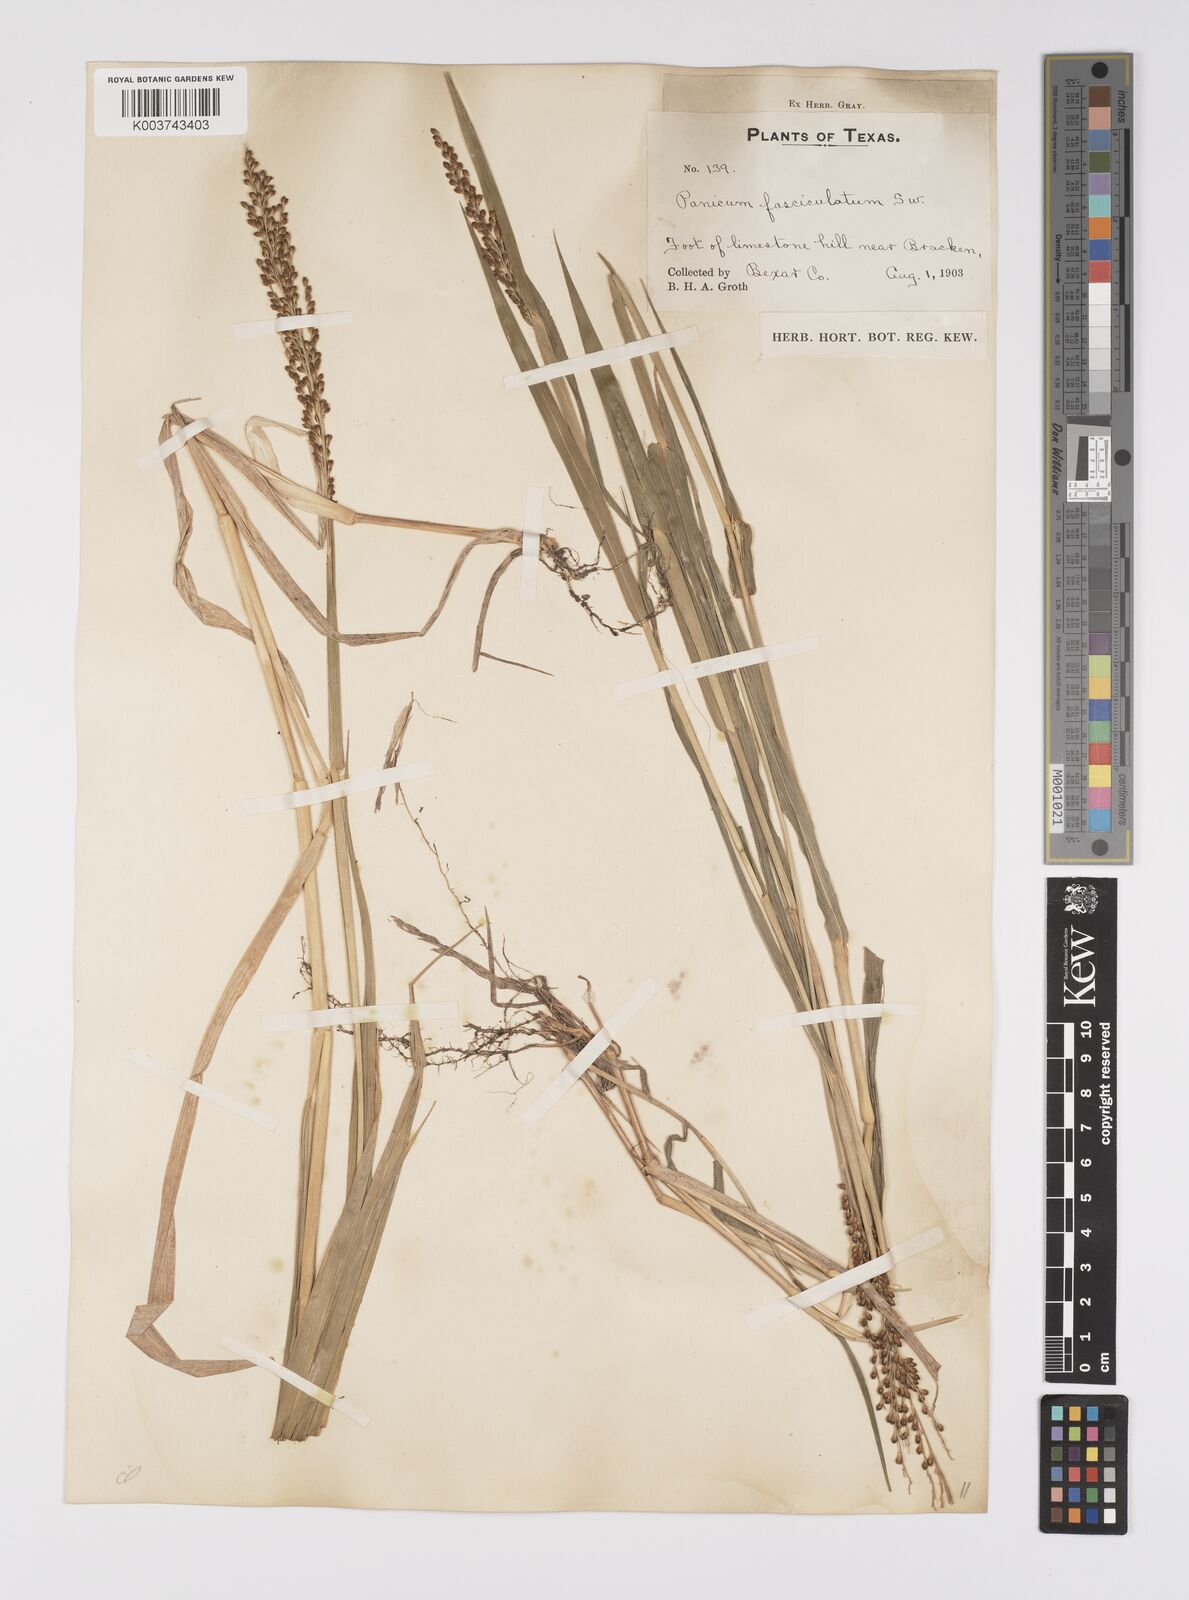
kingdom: Plantae
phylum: Tracheophyta
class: Liliopsida
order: Poales
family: Poaceae
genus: Urochloa
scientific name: Urochloa fusca
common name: Browntop signal grass
